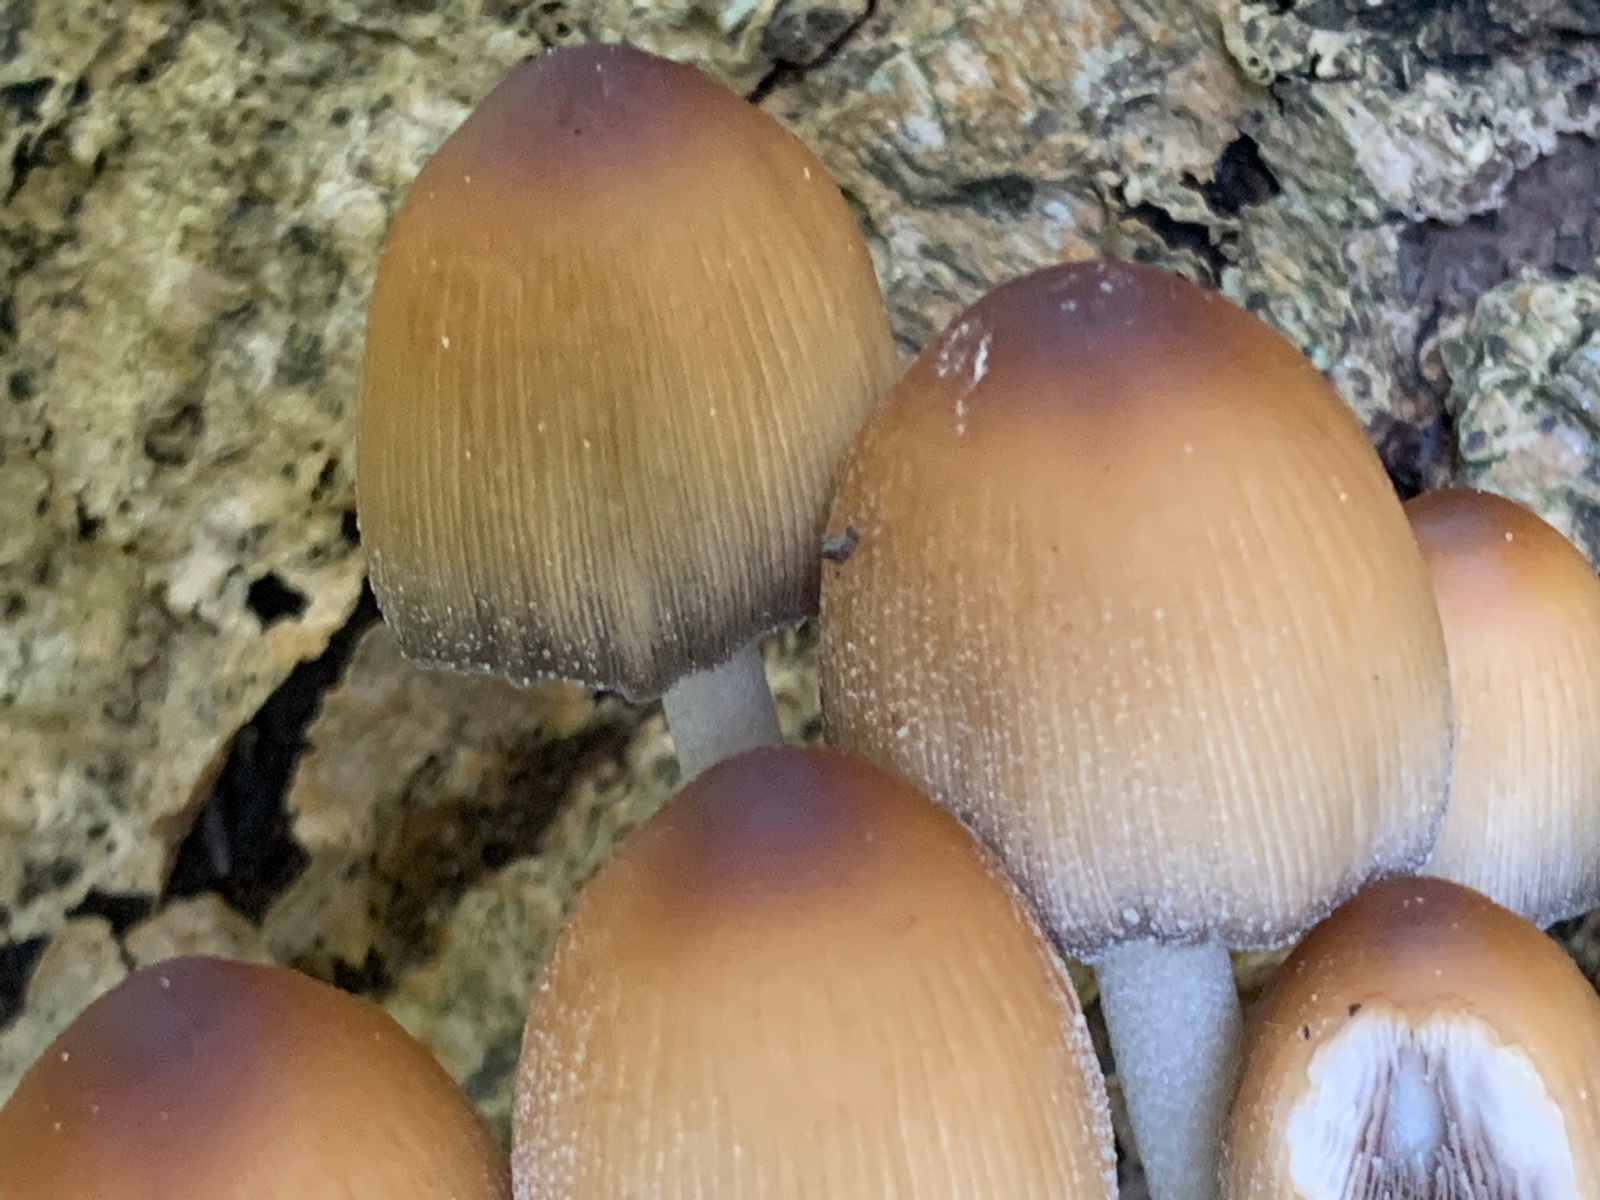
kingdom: Fungi
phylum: Basidiomycota
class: Agaricomycetes
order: Agaricales
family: Psathyrellaceae
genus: Coprinellus
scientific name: Coprinellus micaceus
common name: glimmer-blækhat
